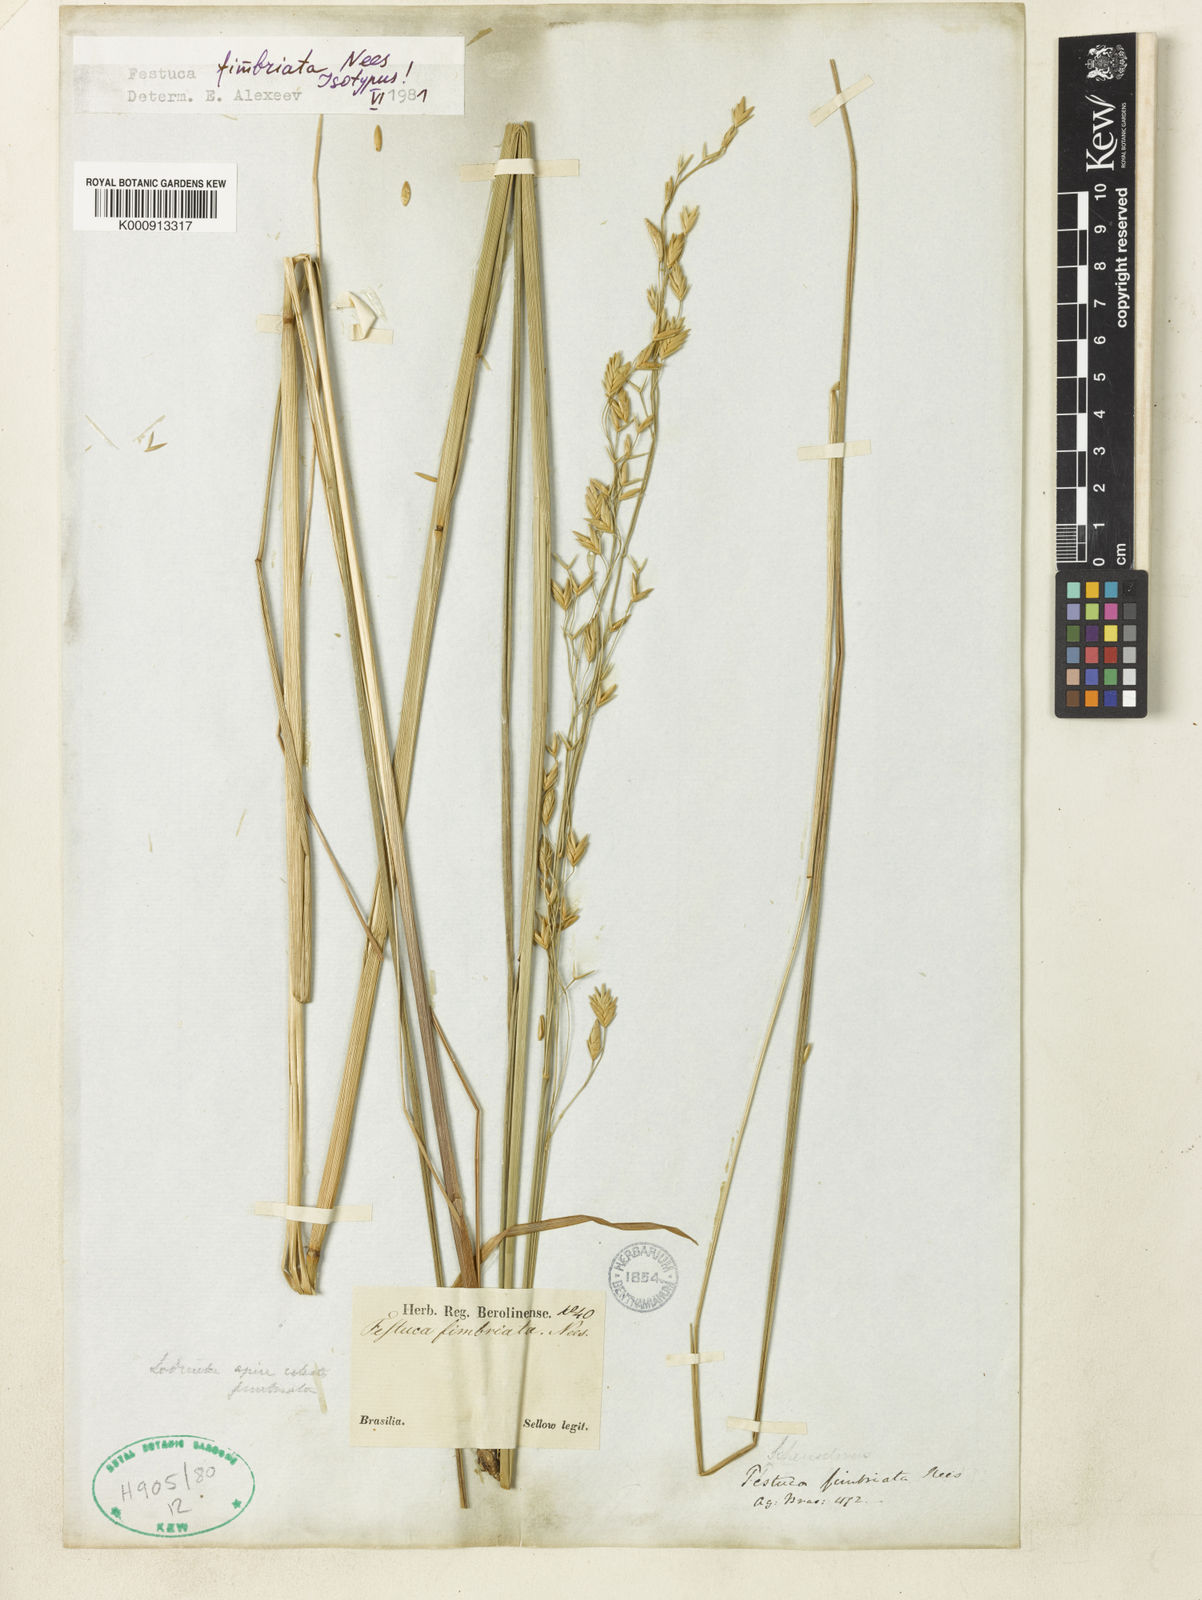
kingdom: Plantae
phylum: Tracheophyta
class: Liliopsida
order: Poales
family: Poaceae
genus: Festuca
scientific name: Festuca fimbriata
